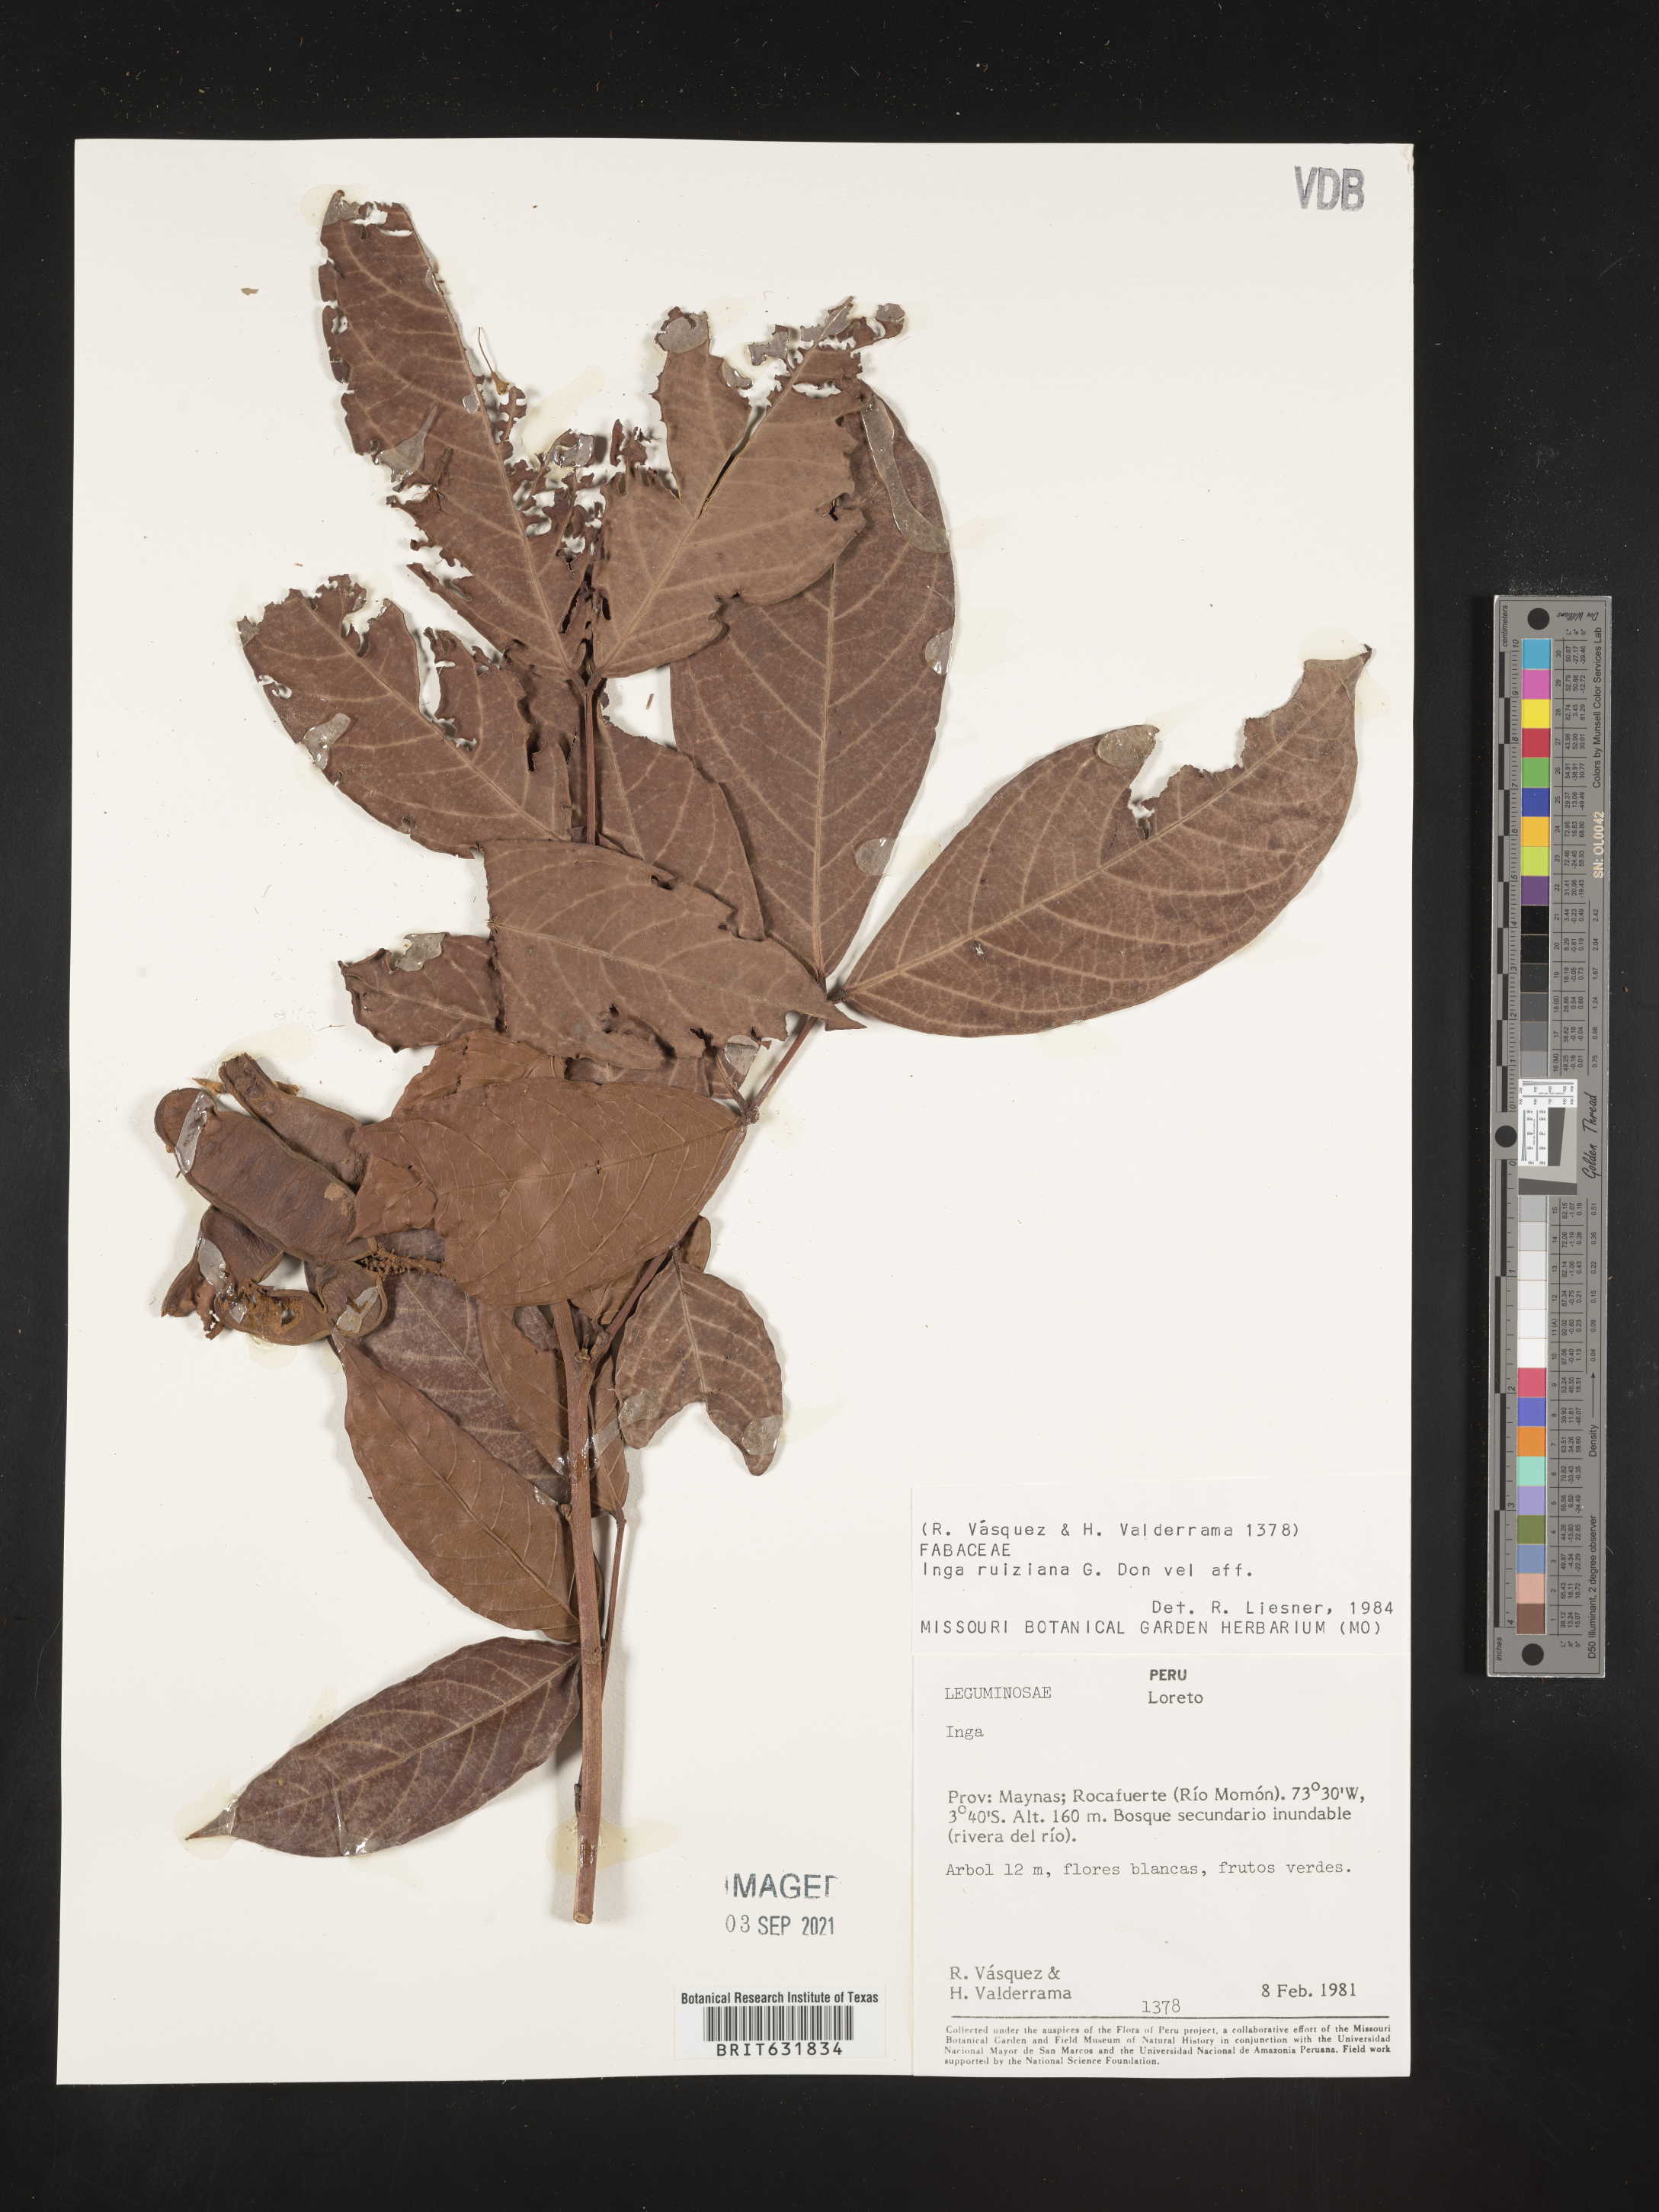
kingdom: Plantae
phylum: Tracheophyta
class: Magnoliopsida
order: Fabales
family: Fabaceae
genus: Inga
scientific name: Inga
